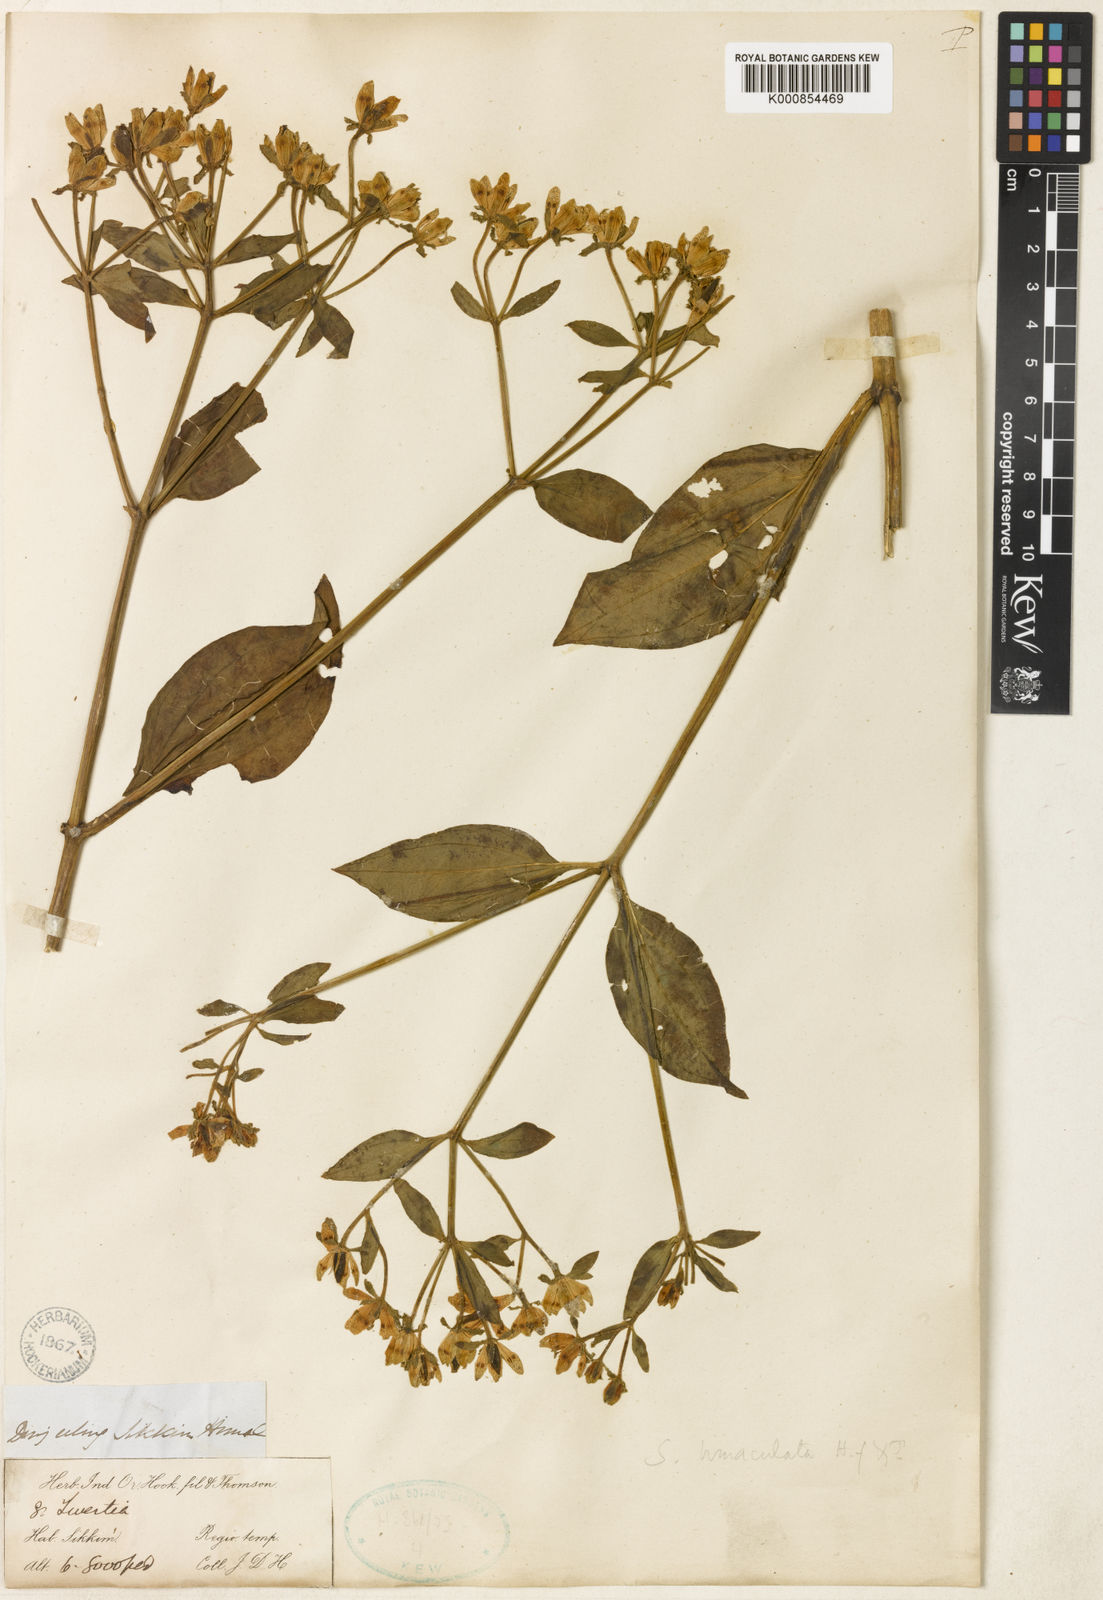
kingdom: Plantae
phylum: Tracheophyta
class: Magnoliopsida
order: Gentianales
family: Gentianaceae
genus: Swertia
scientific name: Swertia bimaculata
